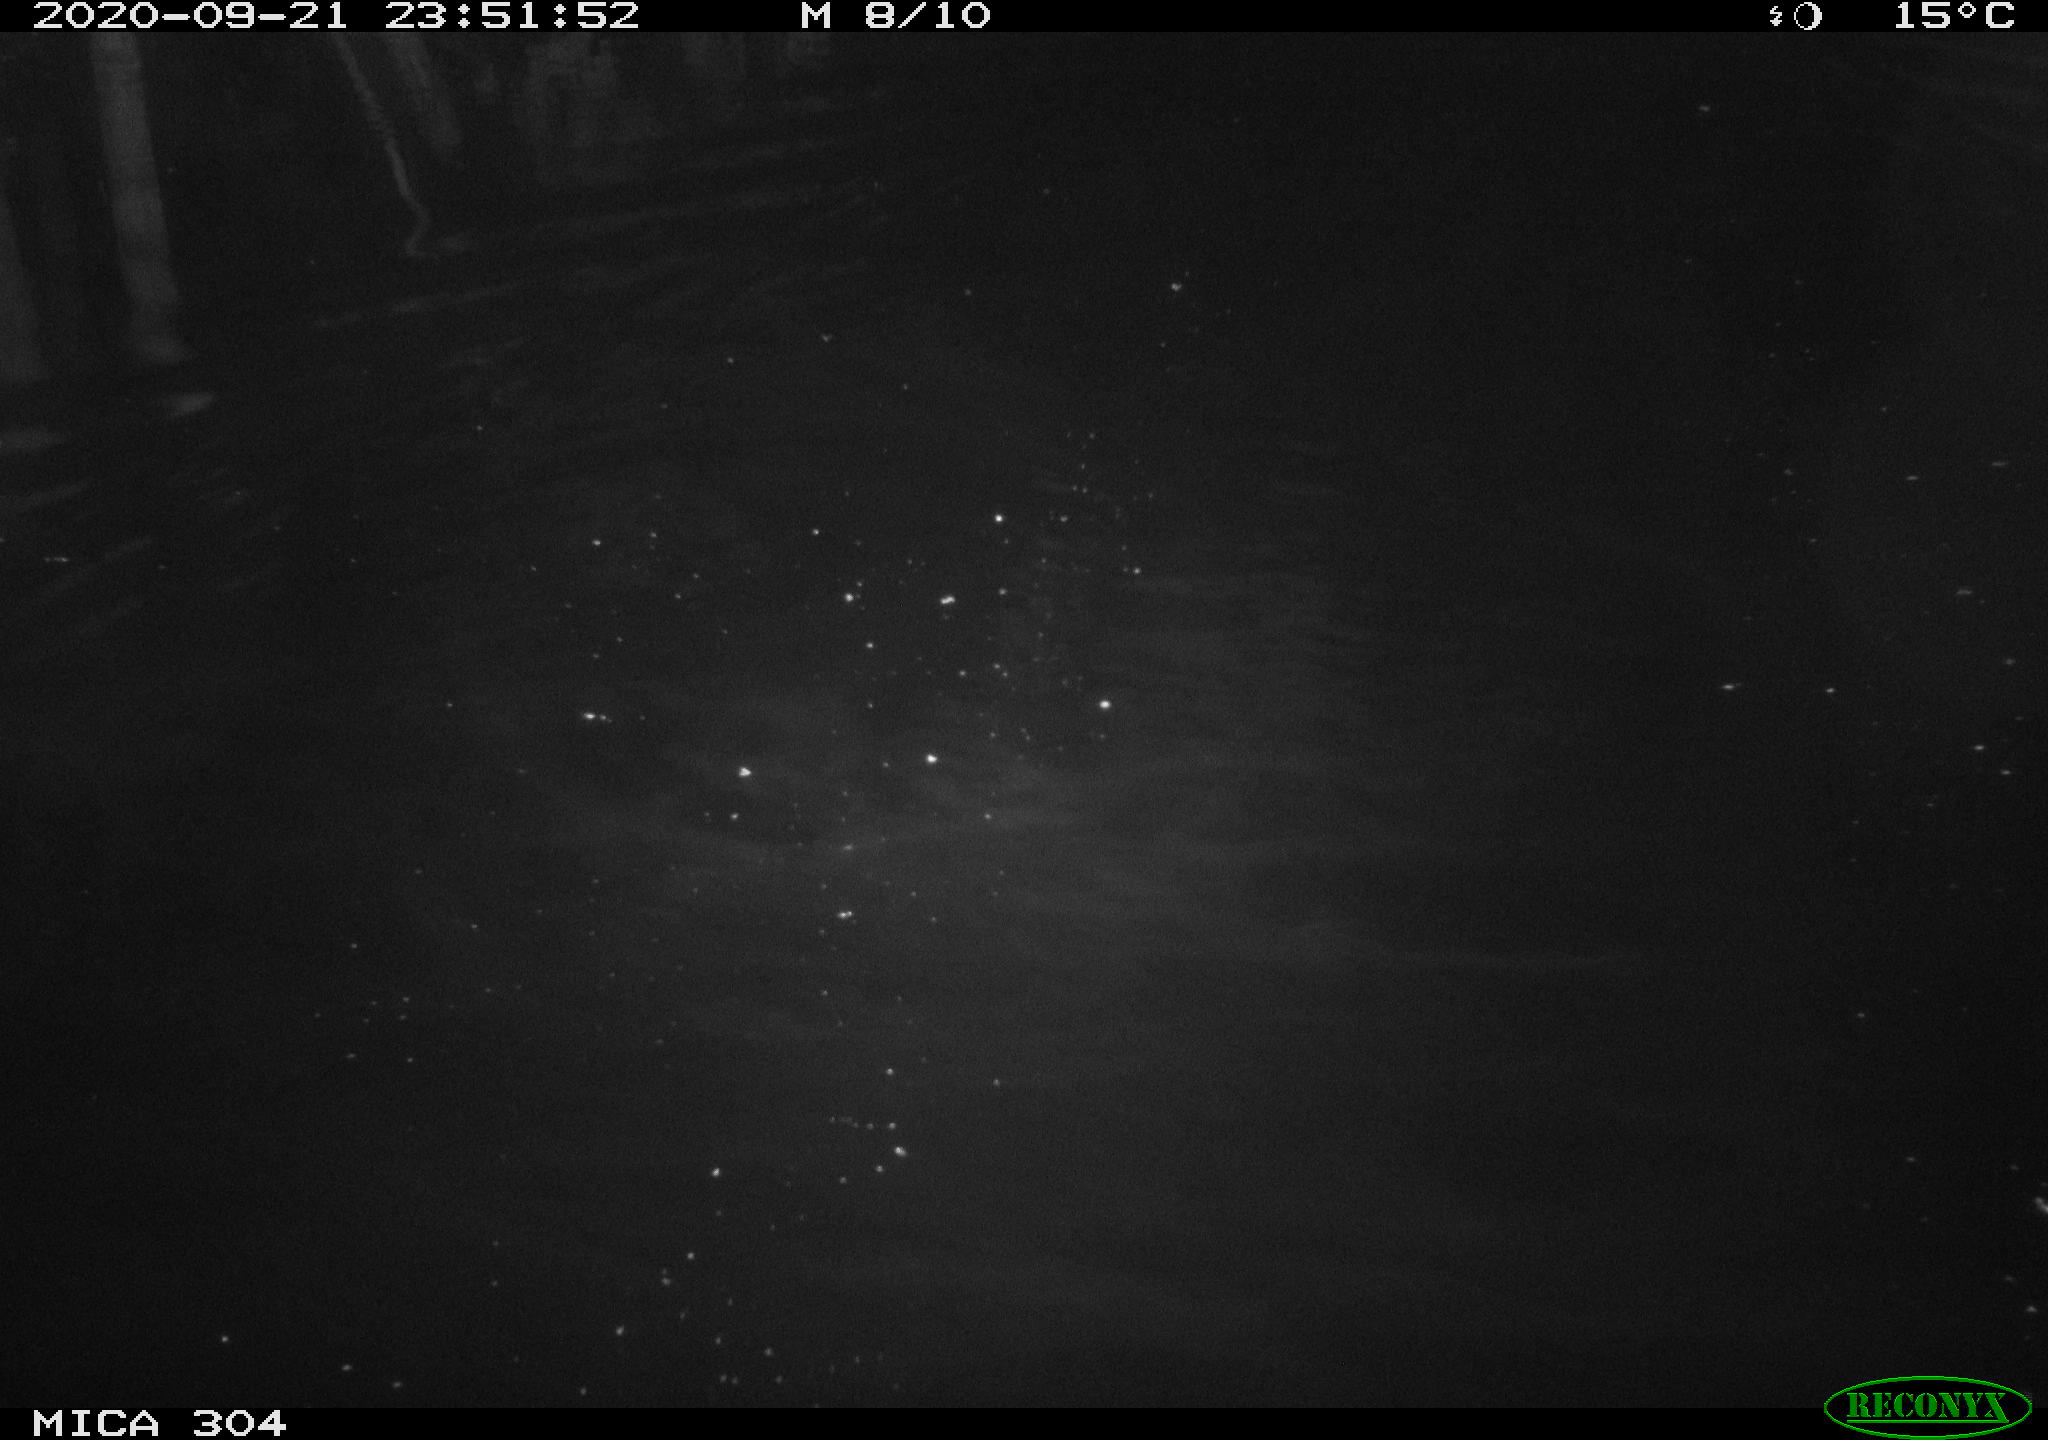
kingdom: Animalia
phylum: Chordata
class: Mammalia
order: Rodentia
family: Cricetidae
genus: Ondatra
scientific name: Ondatra zibethicus
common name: Muskrat
